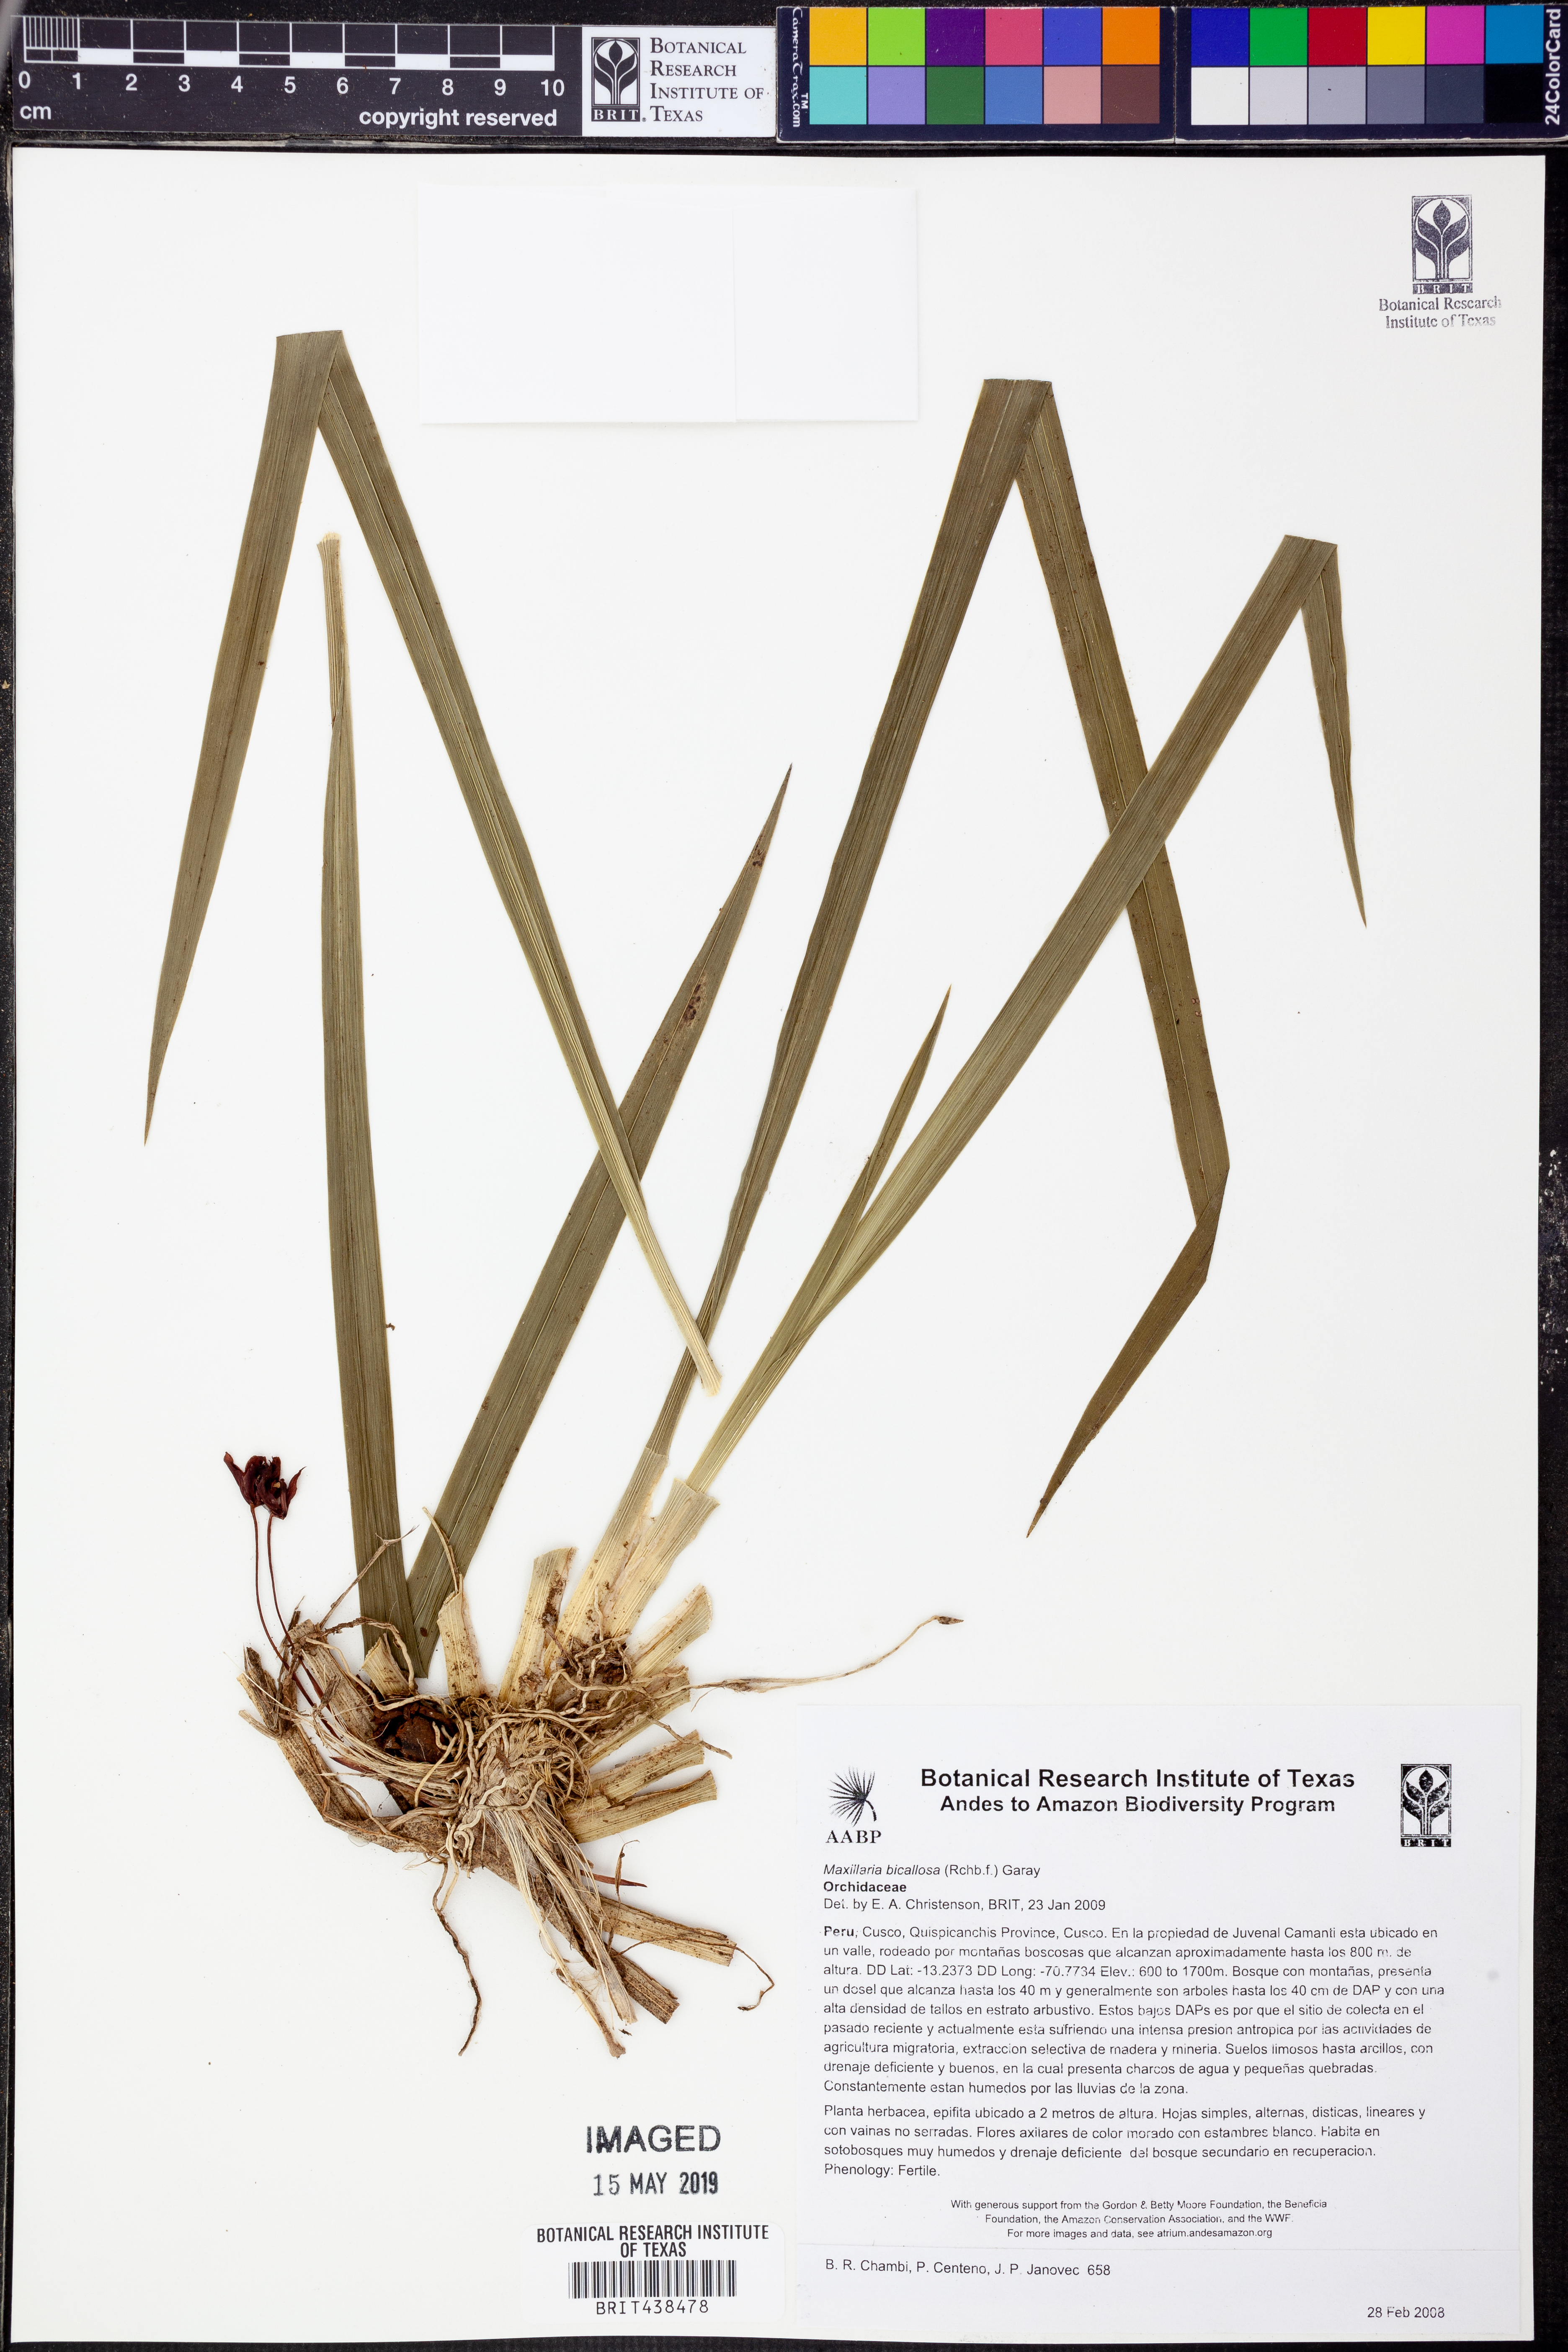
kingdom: Plantae
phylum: Tracheophyta
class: Liliopsida
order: Asparagales
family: Orchidaceae
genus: Maxillaria
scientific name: Maxillaria bicallosa
